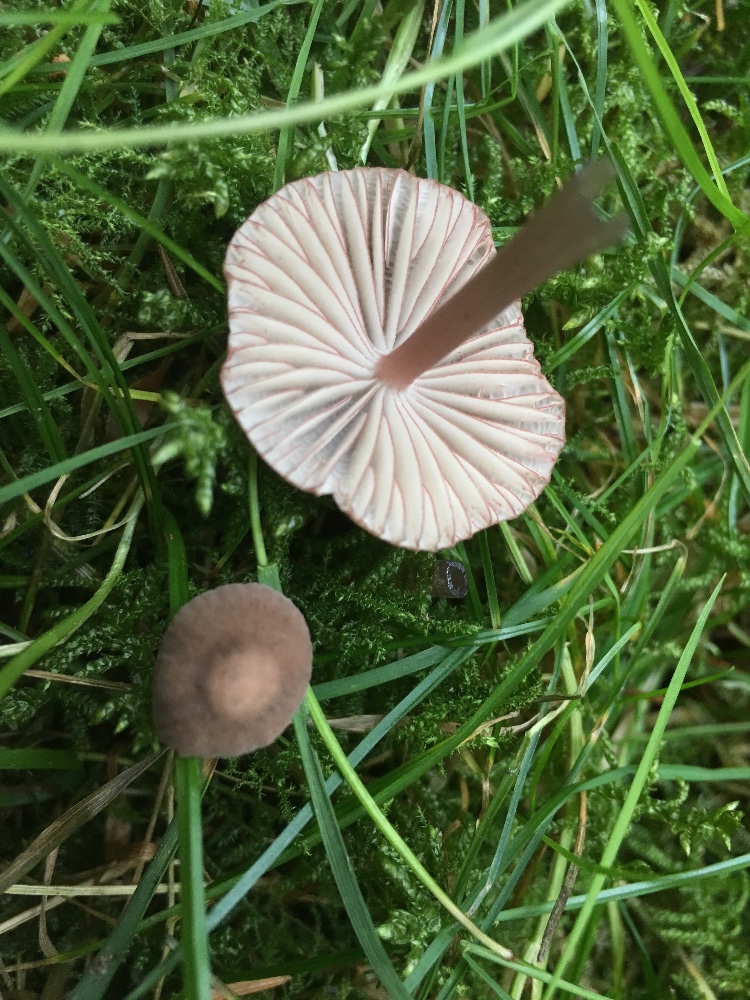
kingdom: Fungi
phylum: Basidiomycota
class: Agaricomycetes
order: Agaricales
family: Mycenaceae
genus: Mycena
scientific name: Mycena rubromarginata
